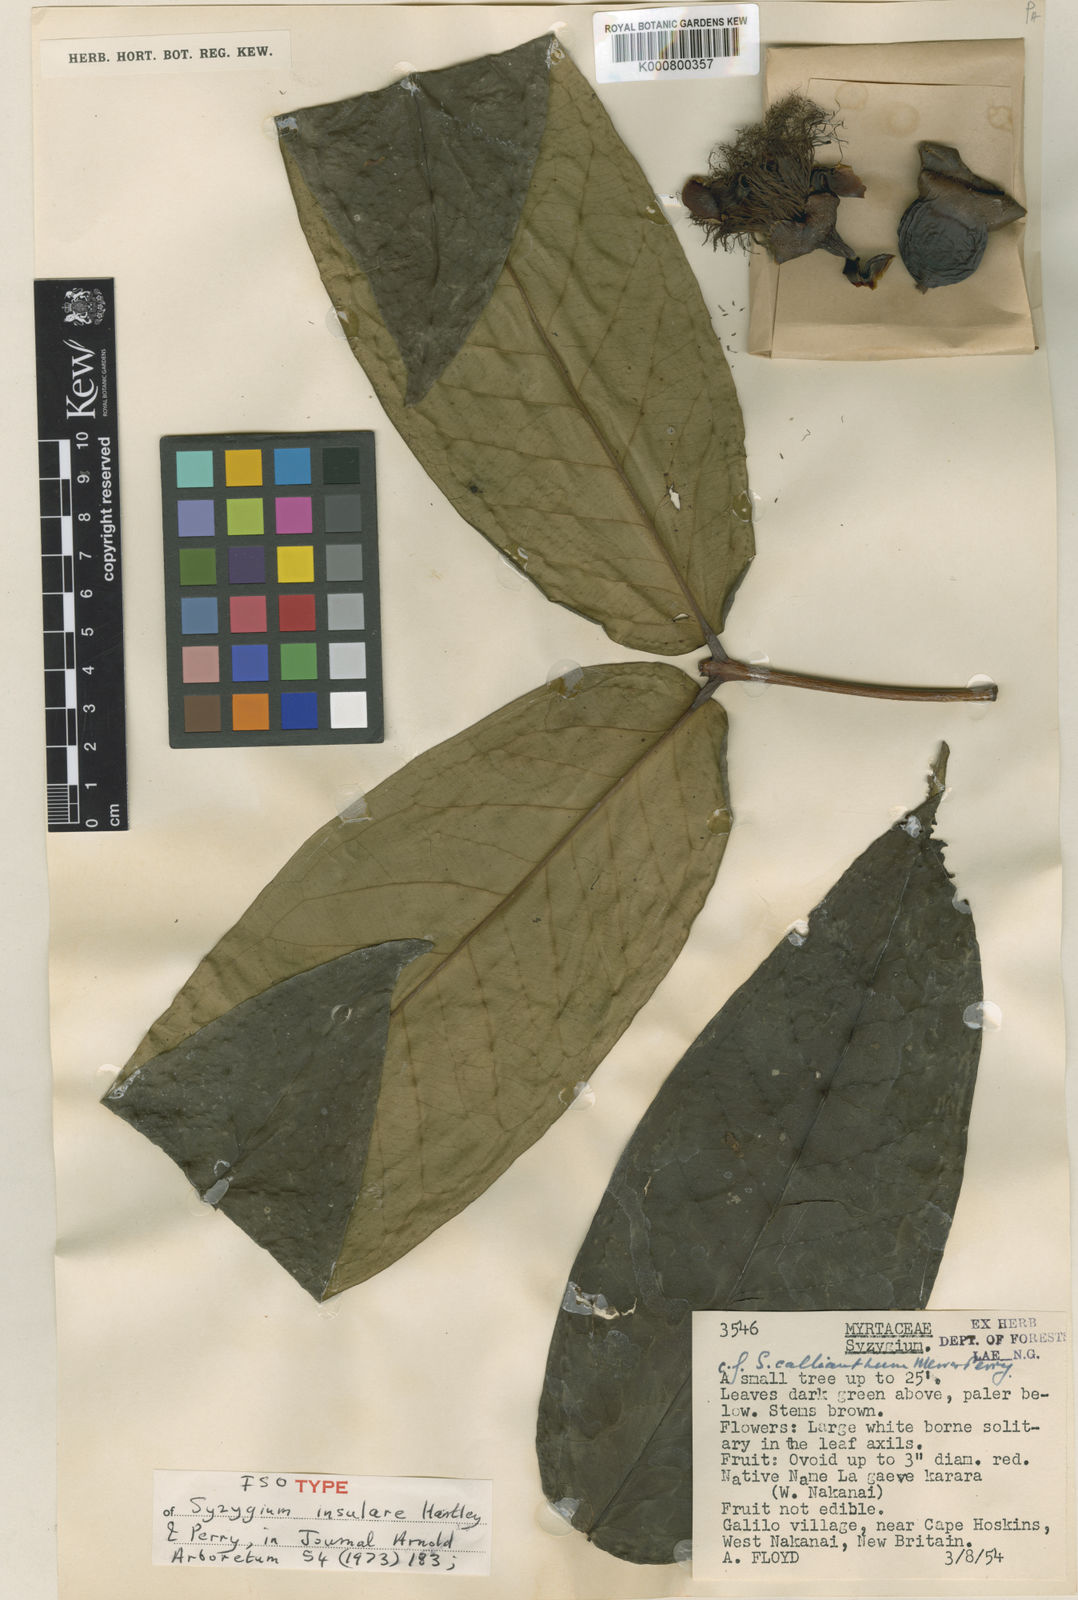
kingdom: Plantae
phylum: Tracheophyta
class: Magnoliopsida
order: Myrtales
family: Myrtaceae
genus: Syzygium
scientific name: Syzygium insulare
